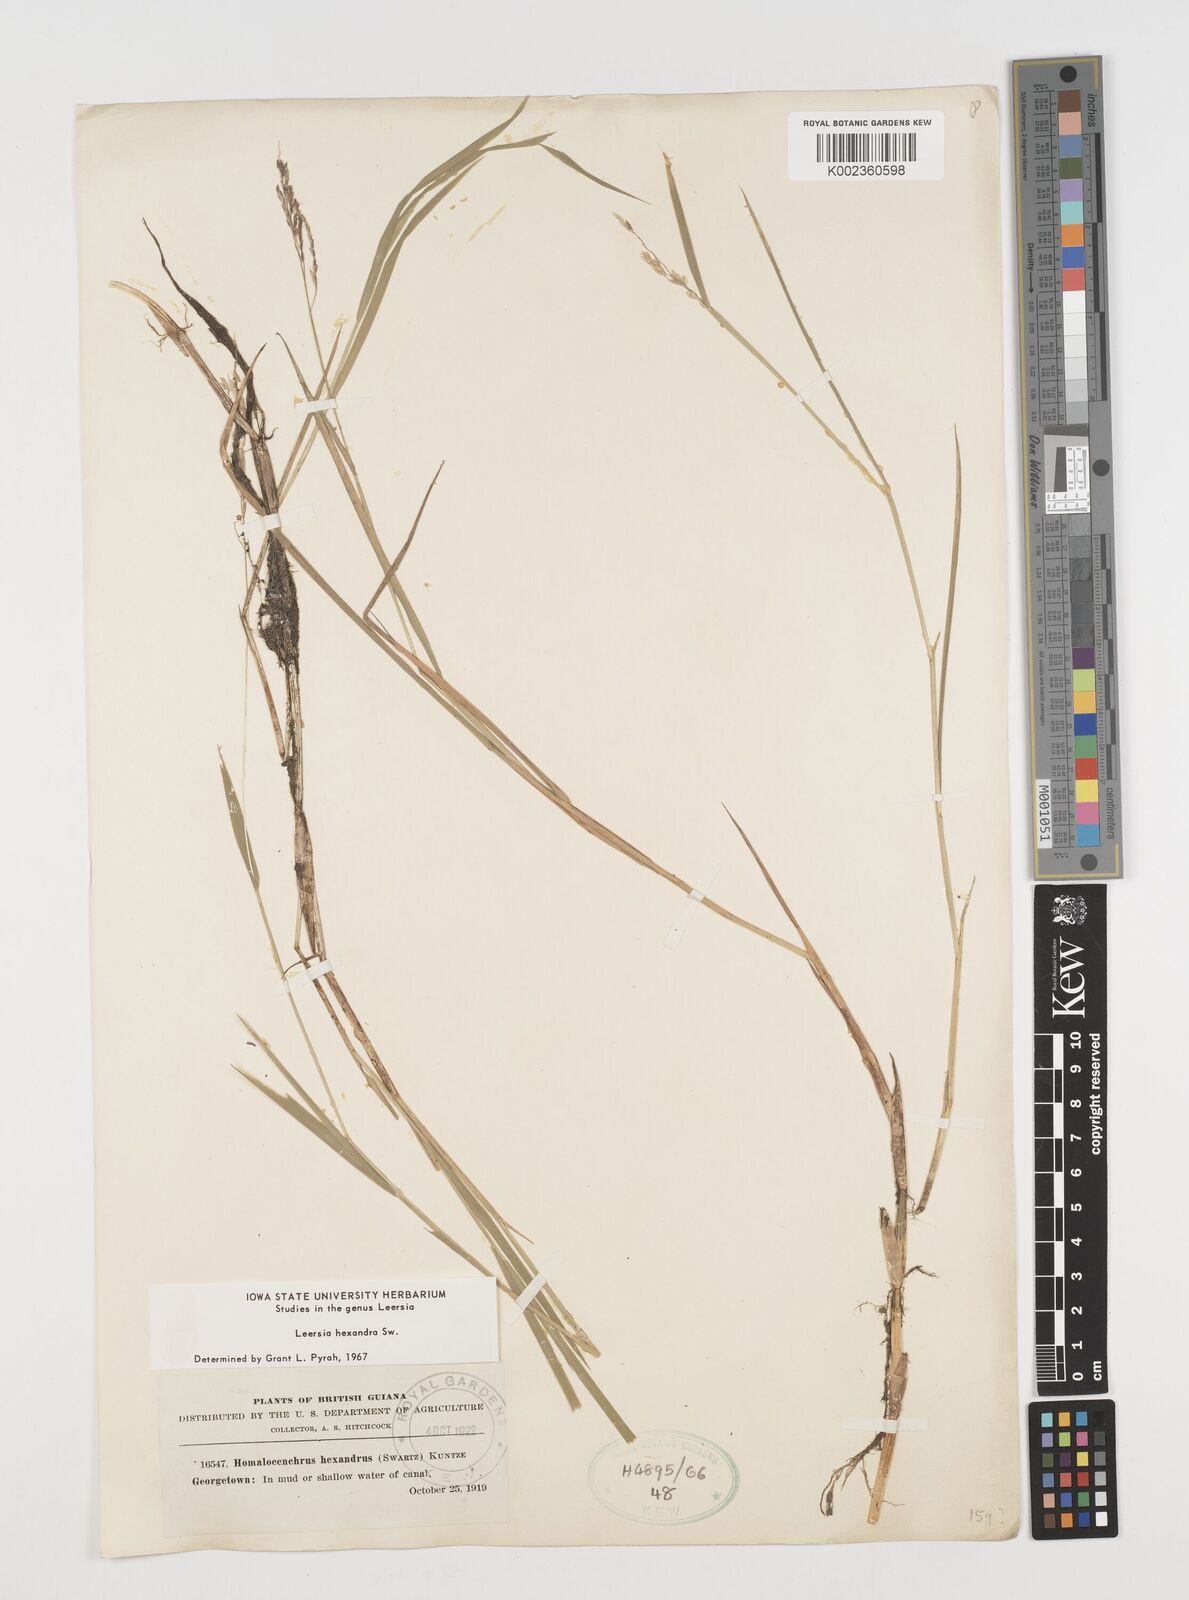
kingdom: Plantae
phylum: Tracheophyta
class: Liliopsida
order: Poales
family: Poaceae
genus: Leersia
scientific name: Leersia hexandra
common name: Southern cut grass
